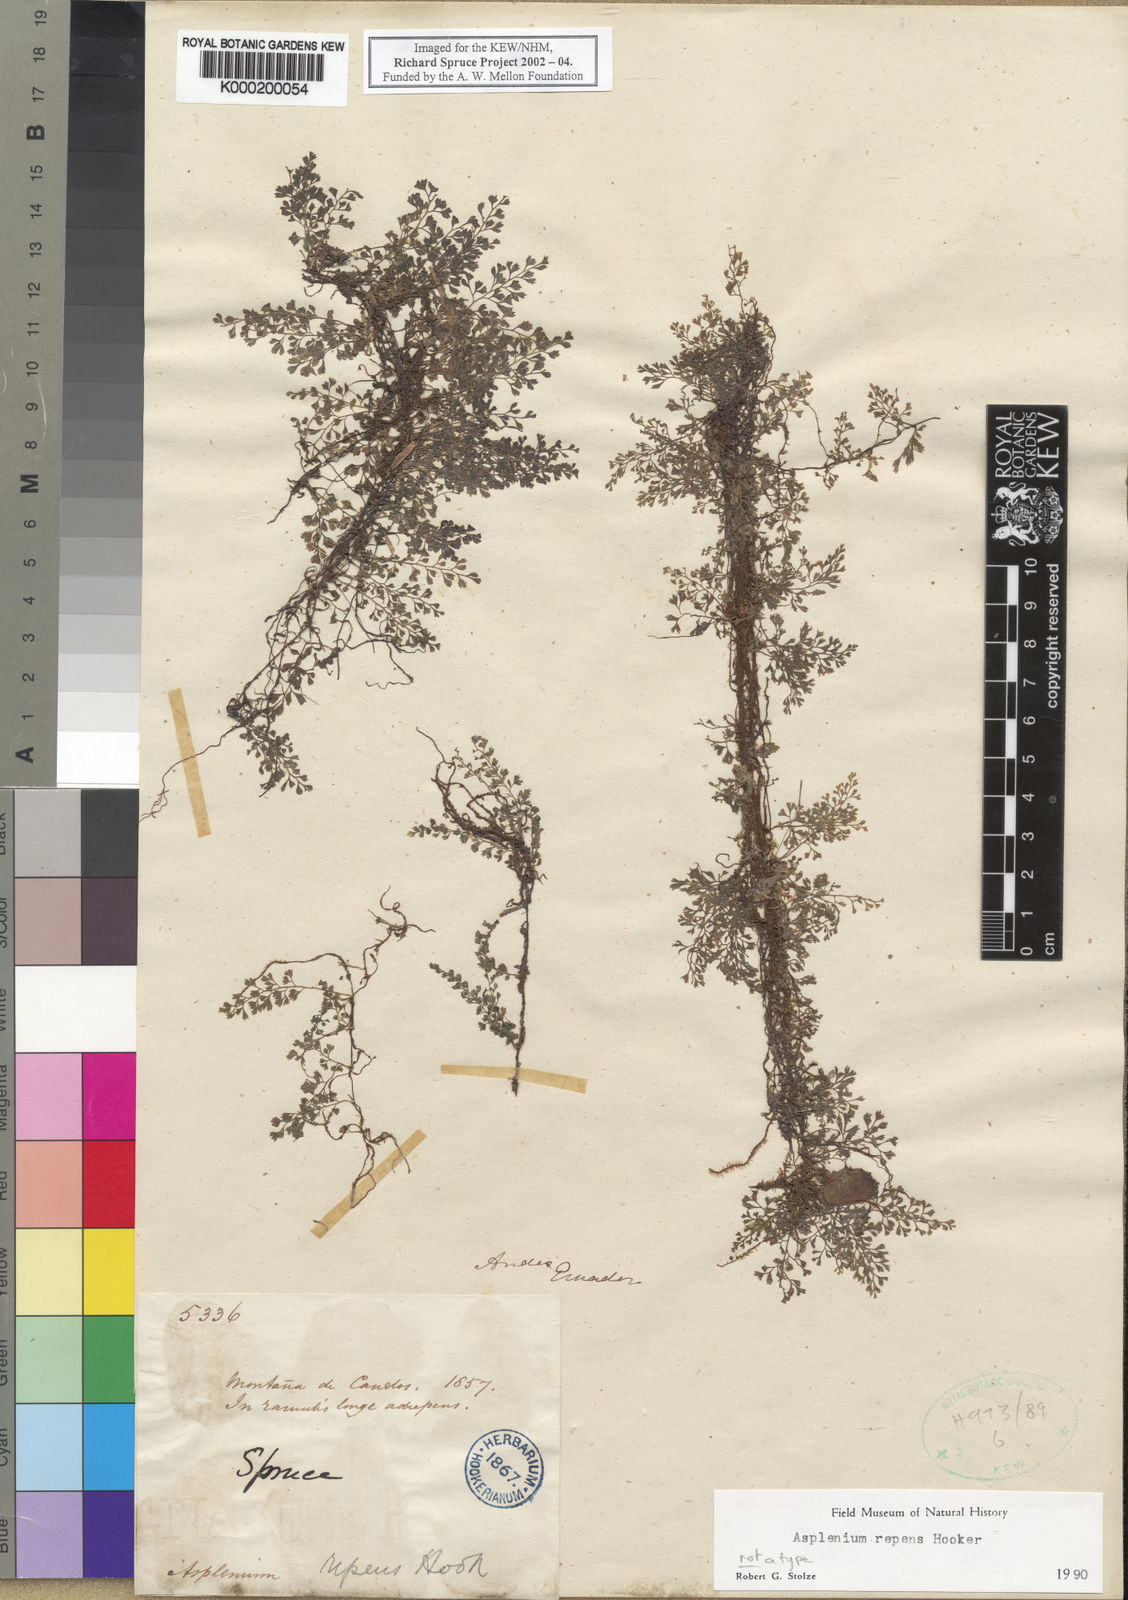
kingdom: Plantae
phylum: Tracheophyta
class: Polypodiopsida
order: Polypodiales
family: Aspleniaceae
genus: Asplenium
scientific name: Asplenium repens
